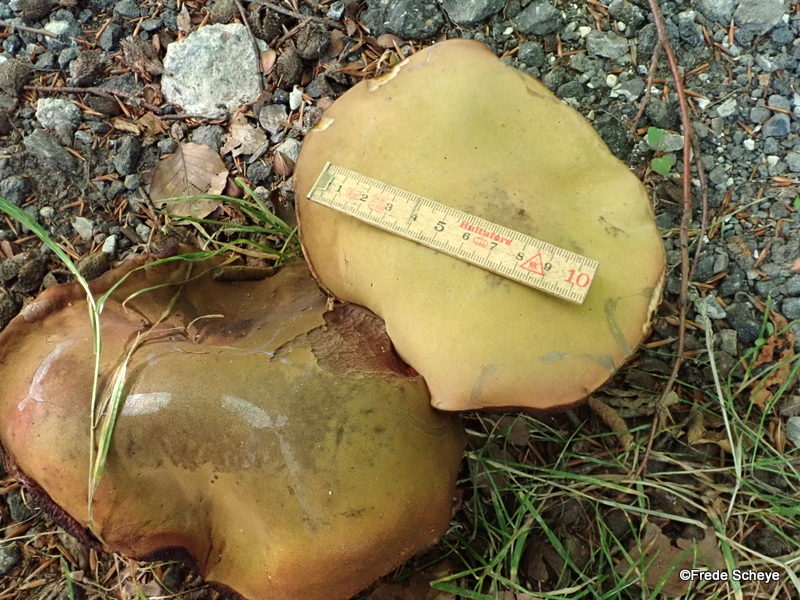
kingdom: Fungi
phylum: Basidiomycota
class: Agaricomycetes
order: Boletales
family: Boletaceae
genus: Suillellus
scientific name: Suillellus luridus
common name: netstokket indigorørhat
